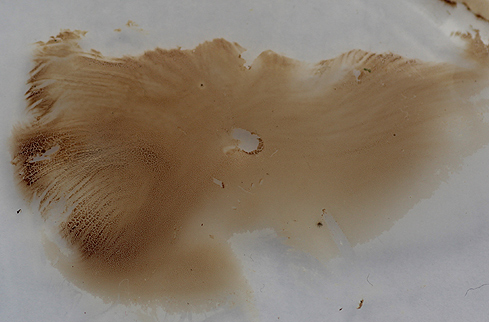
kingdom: Fungi
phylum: Basidiomycota
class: Agaricomycetes
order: Russulales
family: Auriscalpiaceae
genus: Lentinellus
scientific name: Lentinellus flabelliformis
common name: navle-savbladhat
